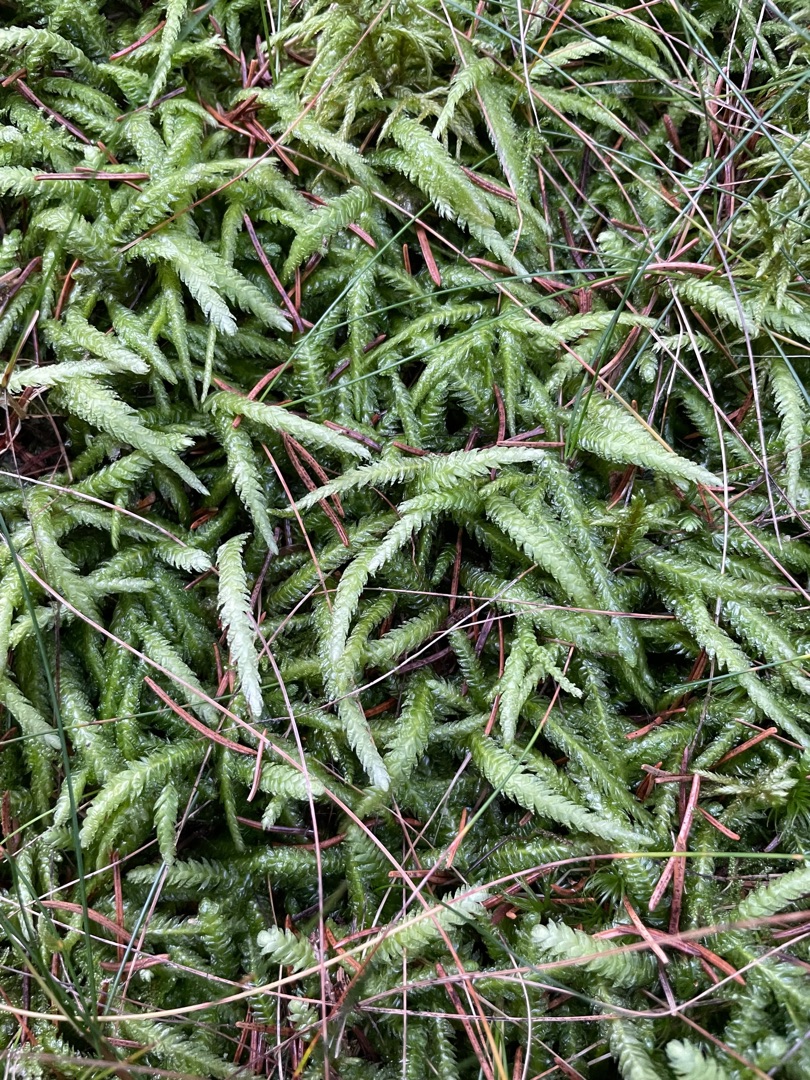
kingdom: Plantae
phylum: Bryophyta
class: Bryopsida
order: Hypnales
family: Plagiotheciaceae
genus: Plagiothecium
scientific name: Plagiothecium undulatum
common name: Bølget tæppemos
